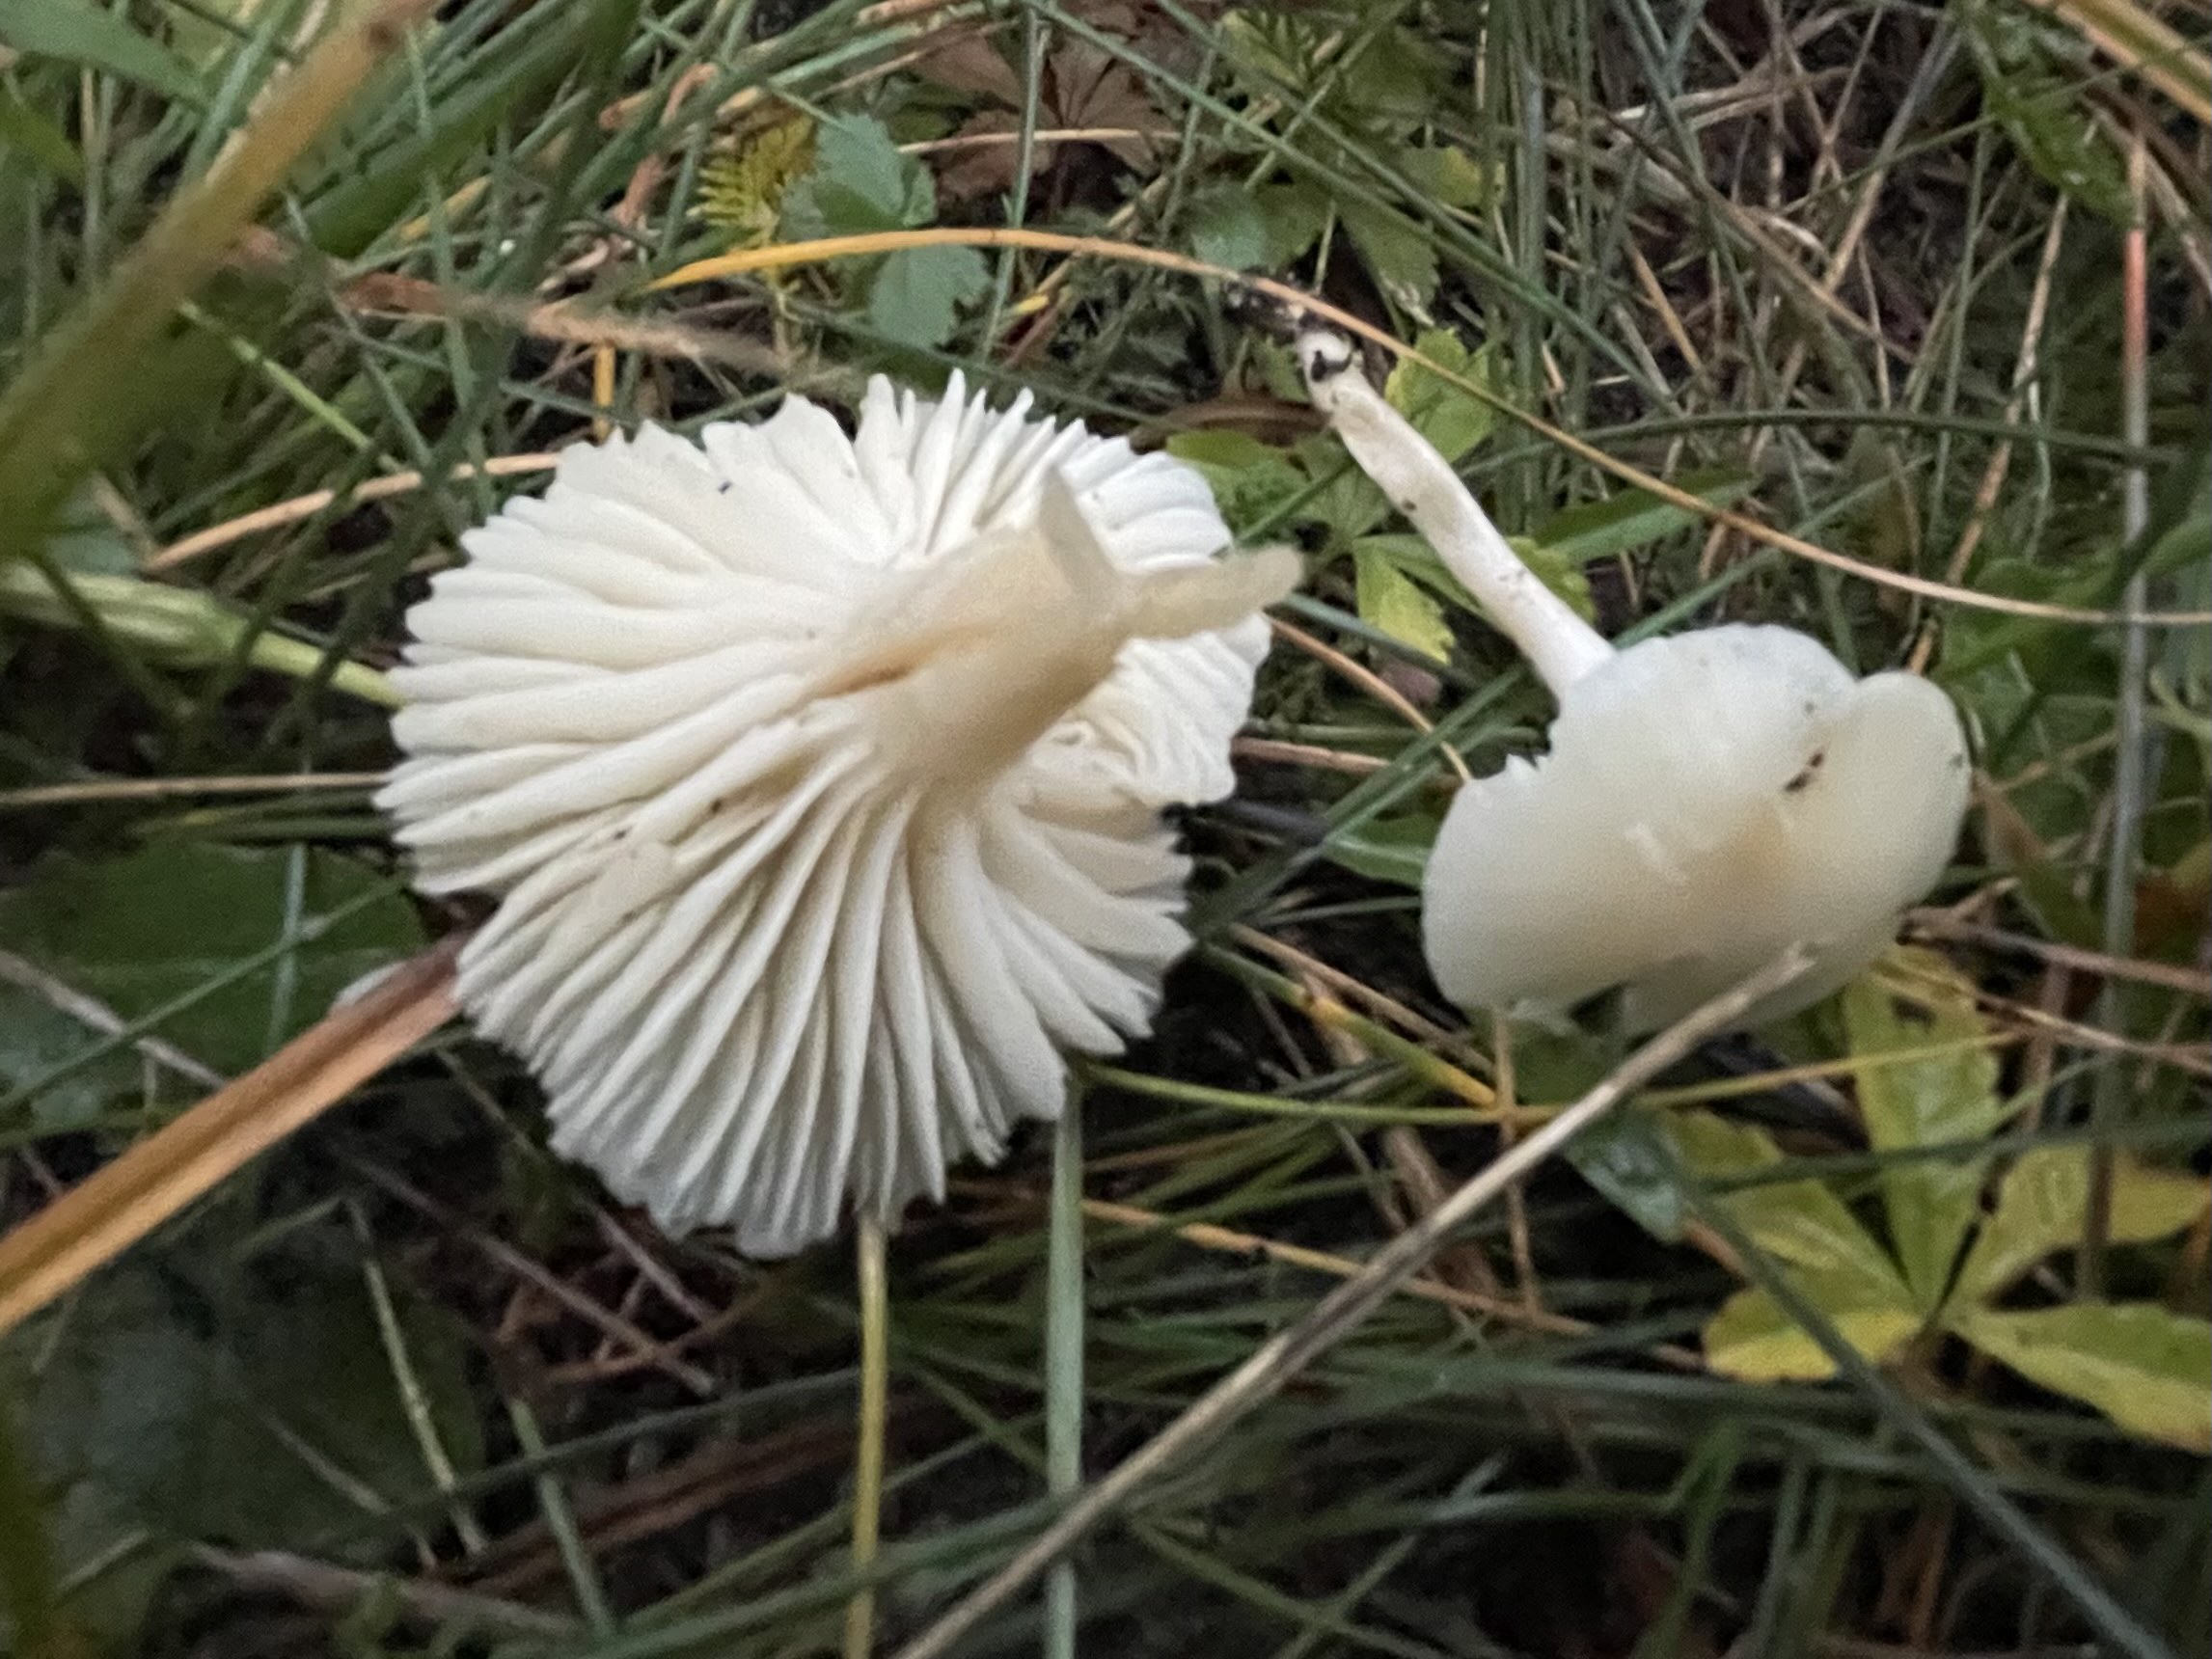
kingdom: Fungi
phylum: Basidiomycota
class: Agaricomycetes
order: Agaricales
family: Hygrophoraceae
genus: Cuphophyllus
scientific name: Cuphophyllus
